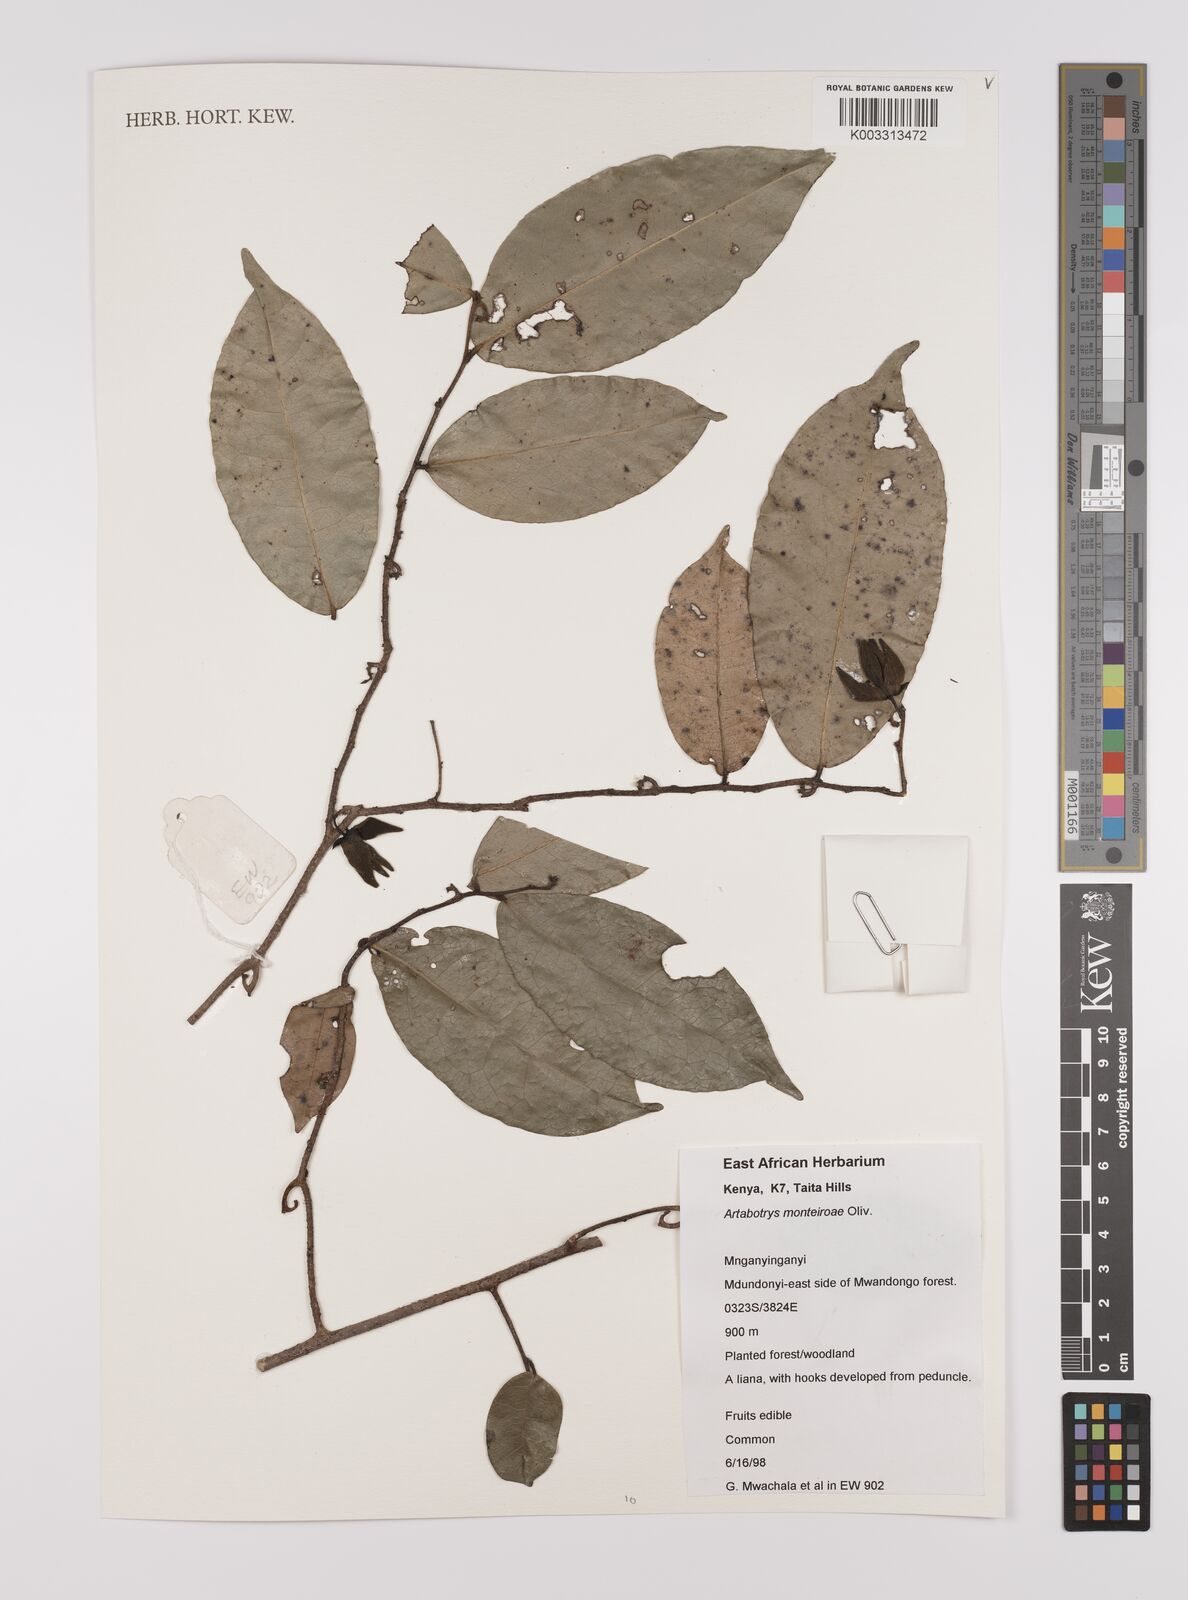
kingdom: Plantae
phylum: Tracheophyta
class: Magnoliopsida
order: Magnoliales
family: Annonaceae
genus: Artabotrys
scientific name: Artabotrys monteiroae
